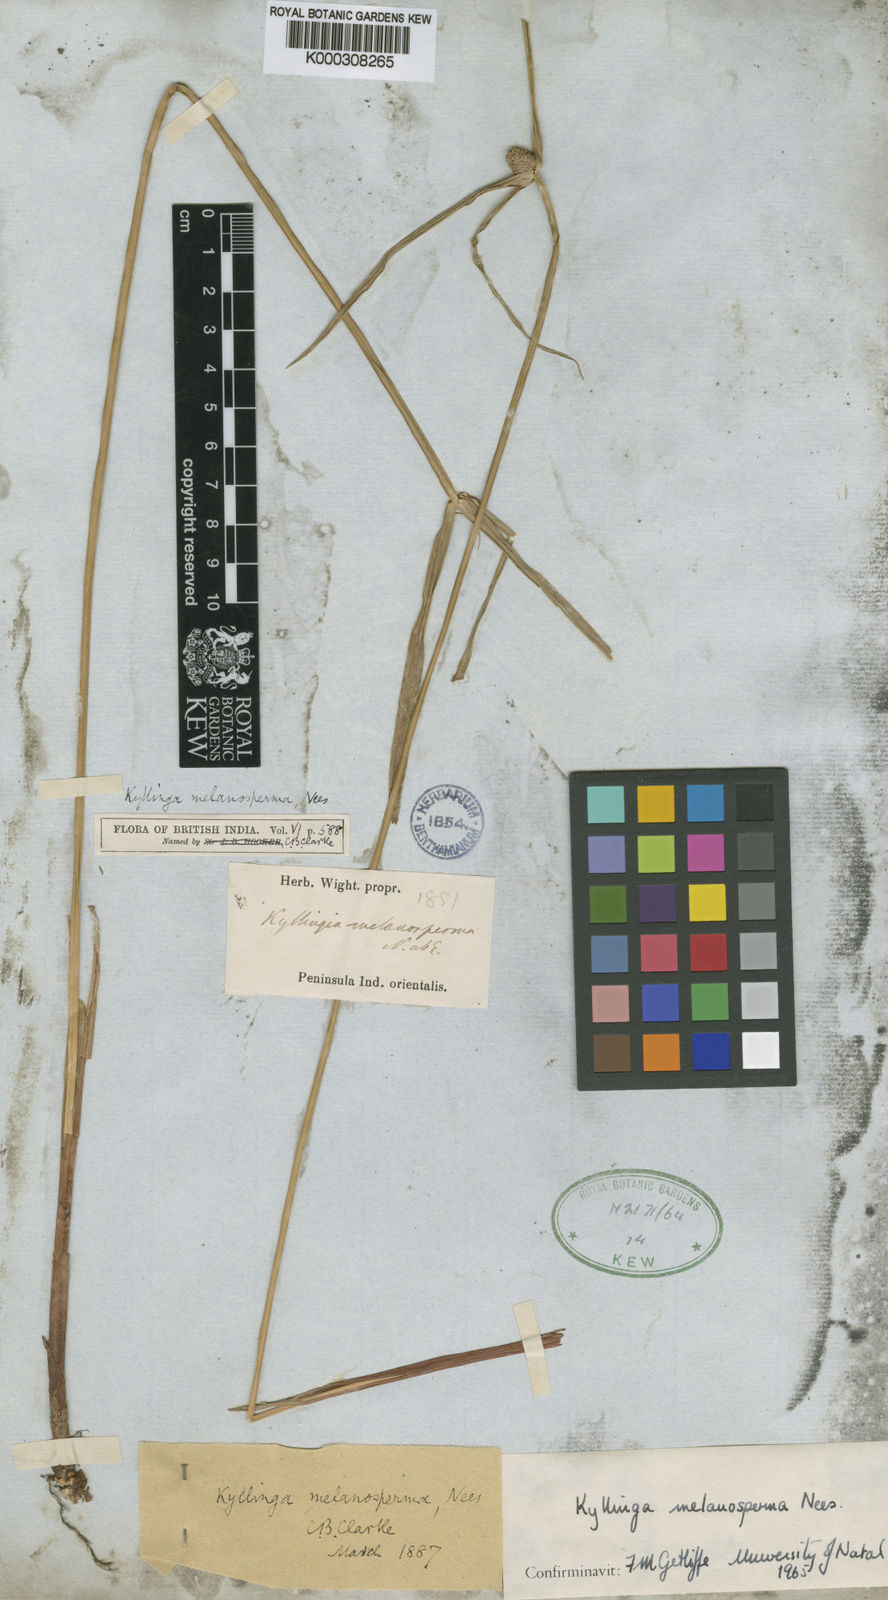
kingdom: Plantae
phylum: Tracheophyta
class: Liliopsida
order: Poales
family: Cyperaceae
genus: Cyperus
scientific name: Cyperus melanospermus
